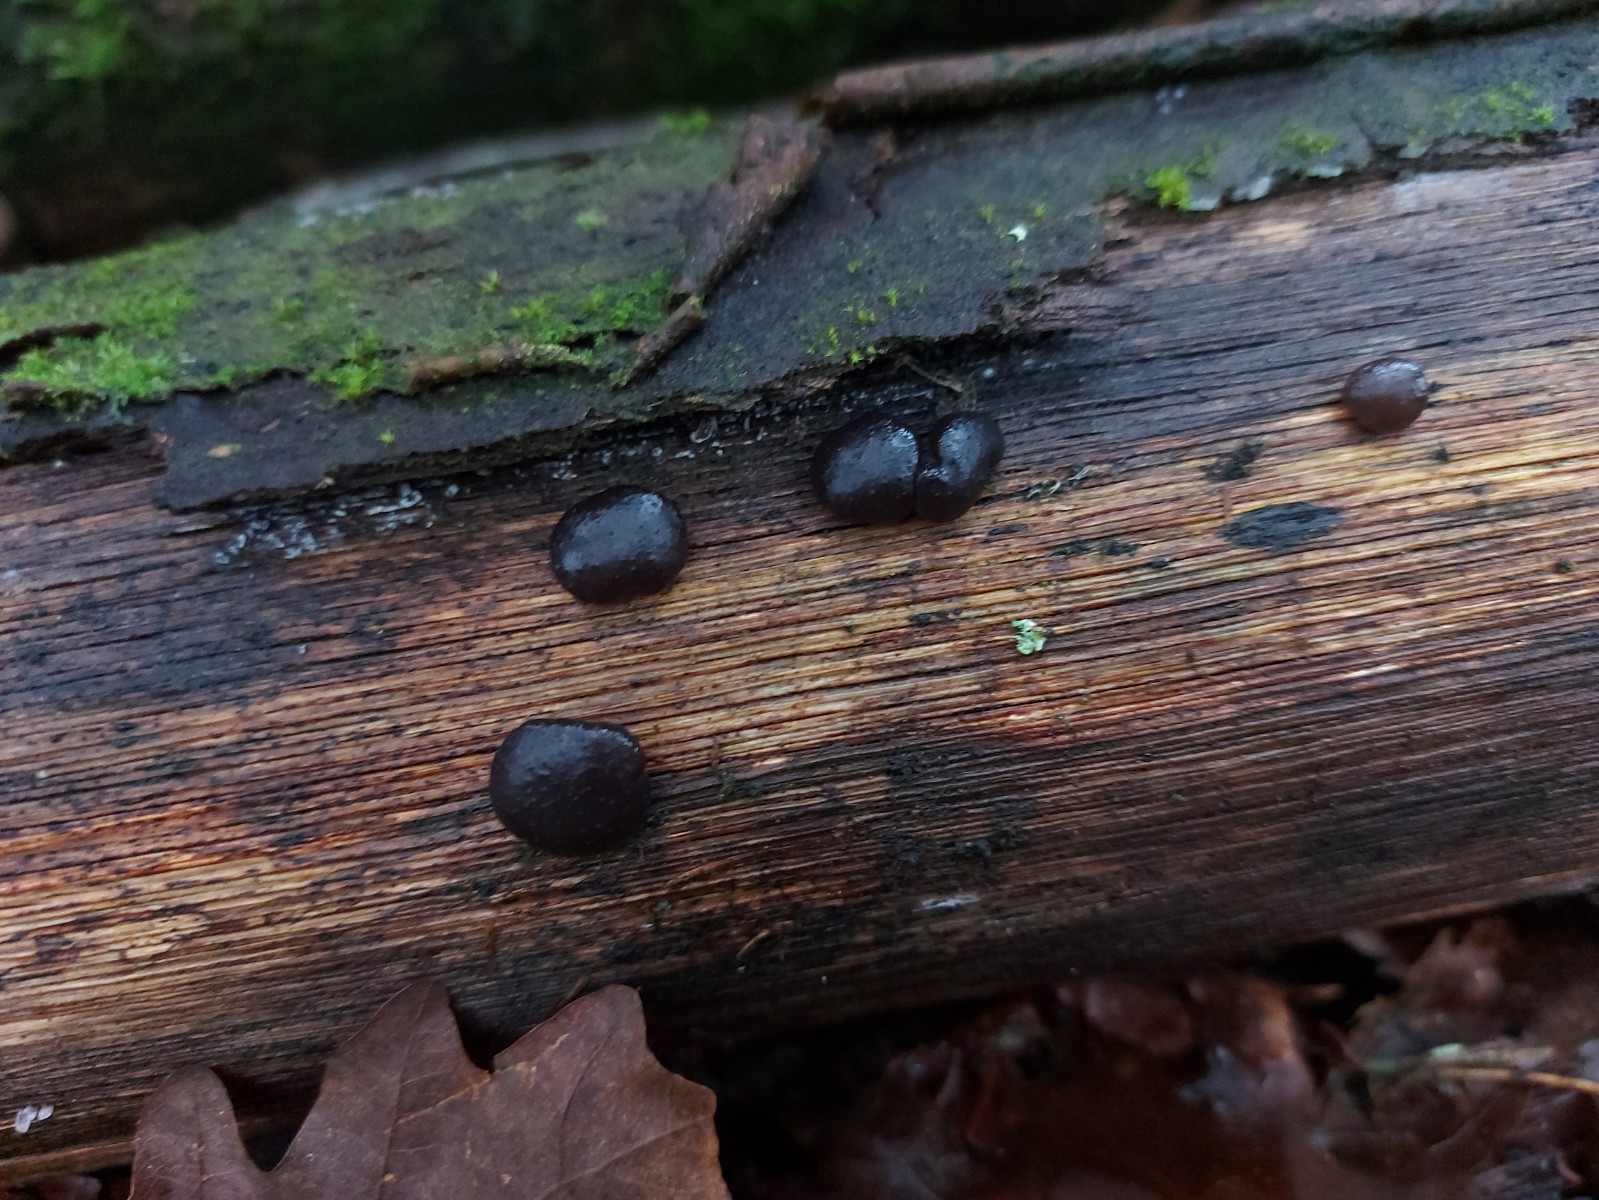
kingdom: Fungi
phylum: Basidiomycota
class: Agaricomycetes
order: Auriculariales
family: Auriculariaceae
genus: Exidia
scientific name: Exidia glandulosa
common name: ege-bævretop
